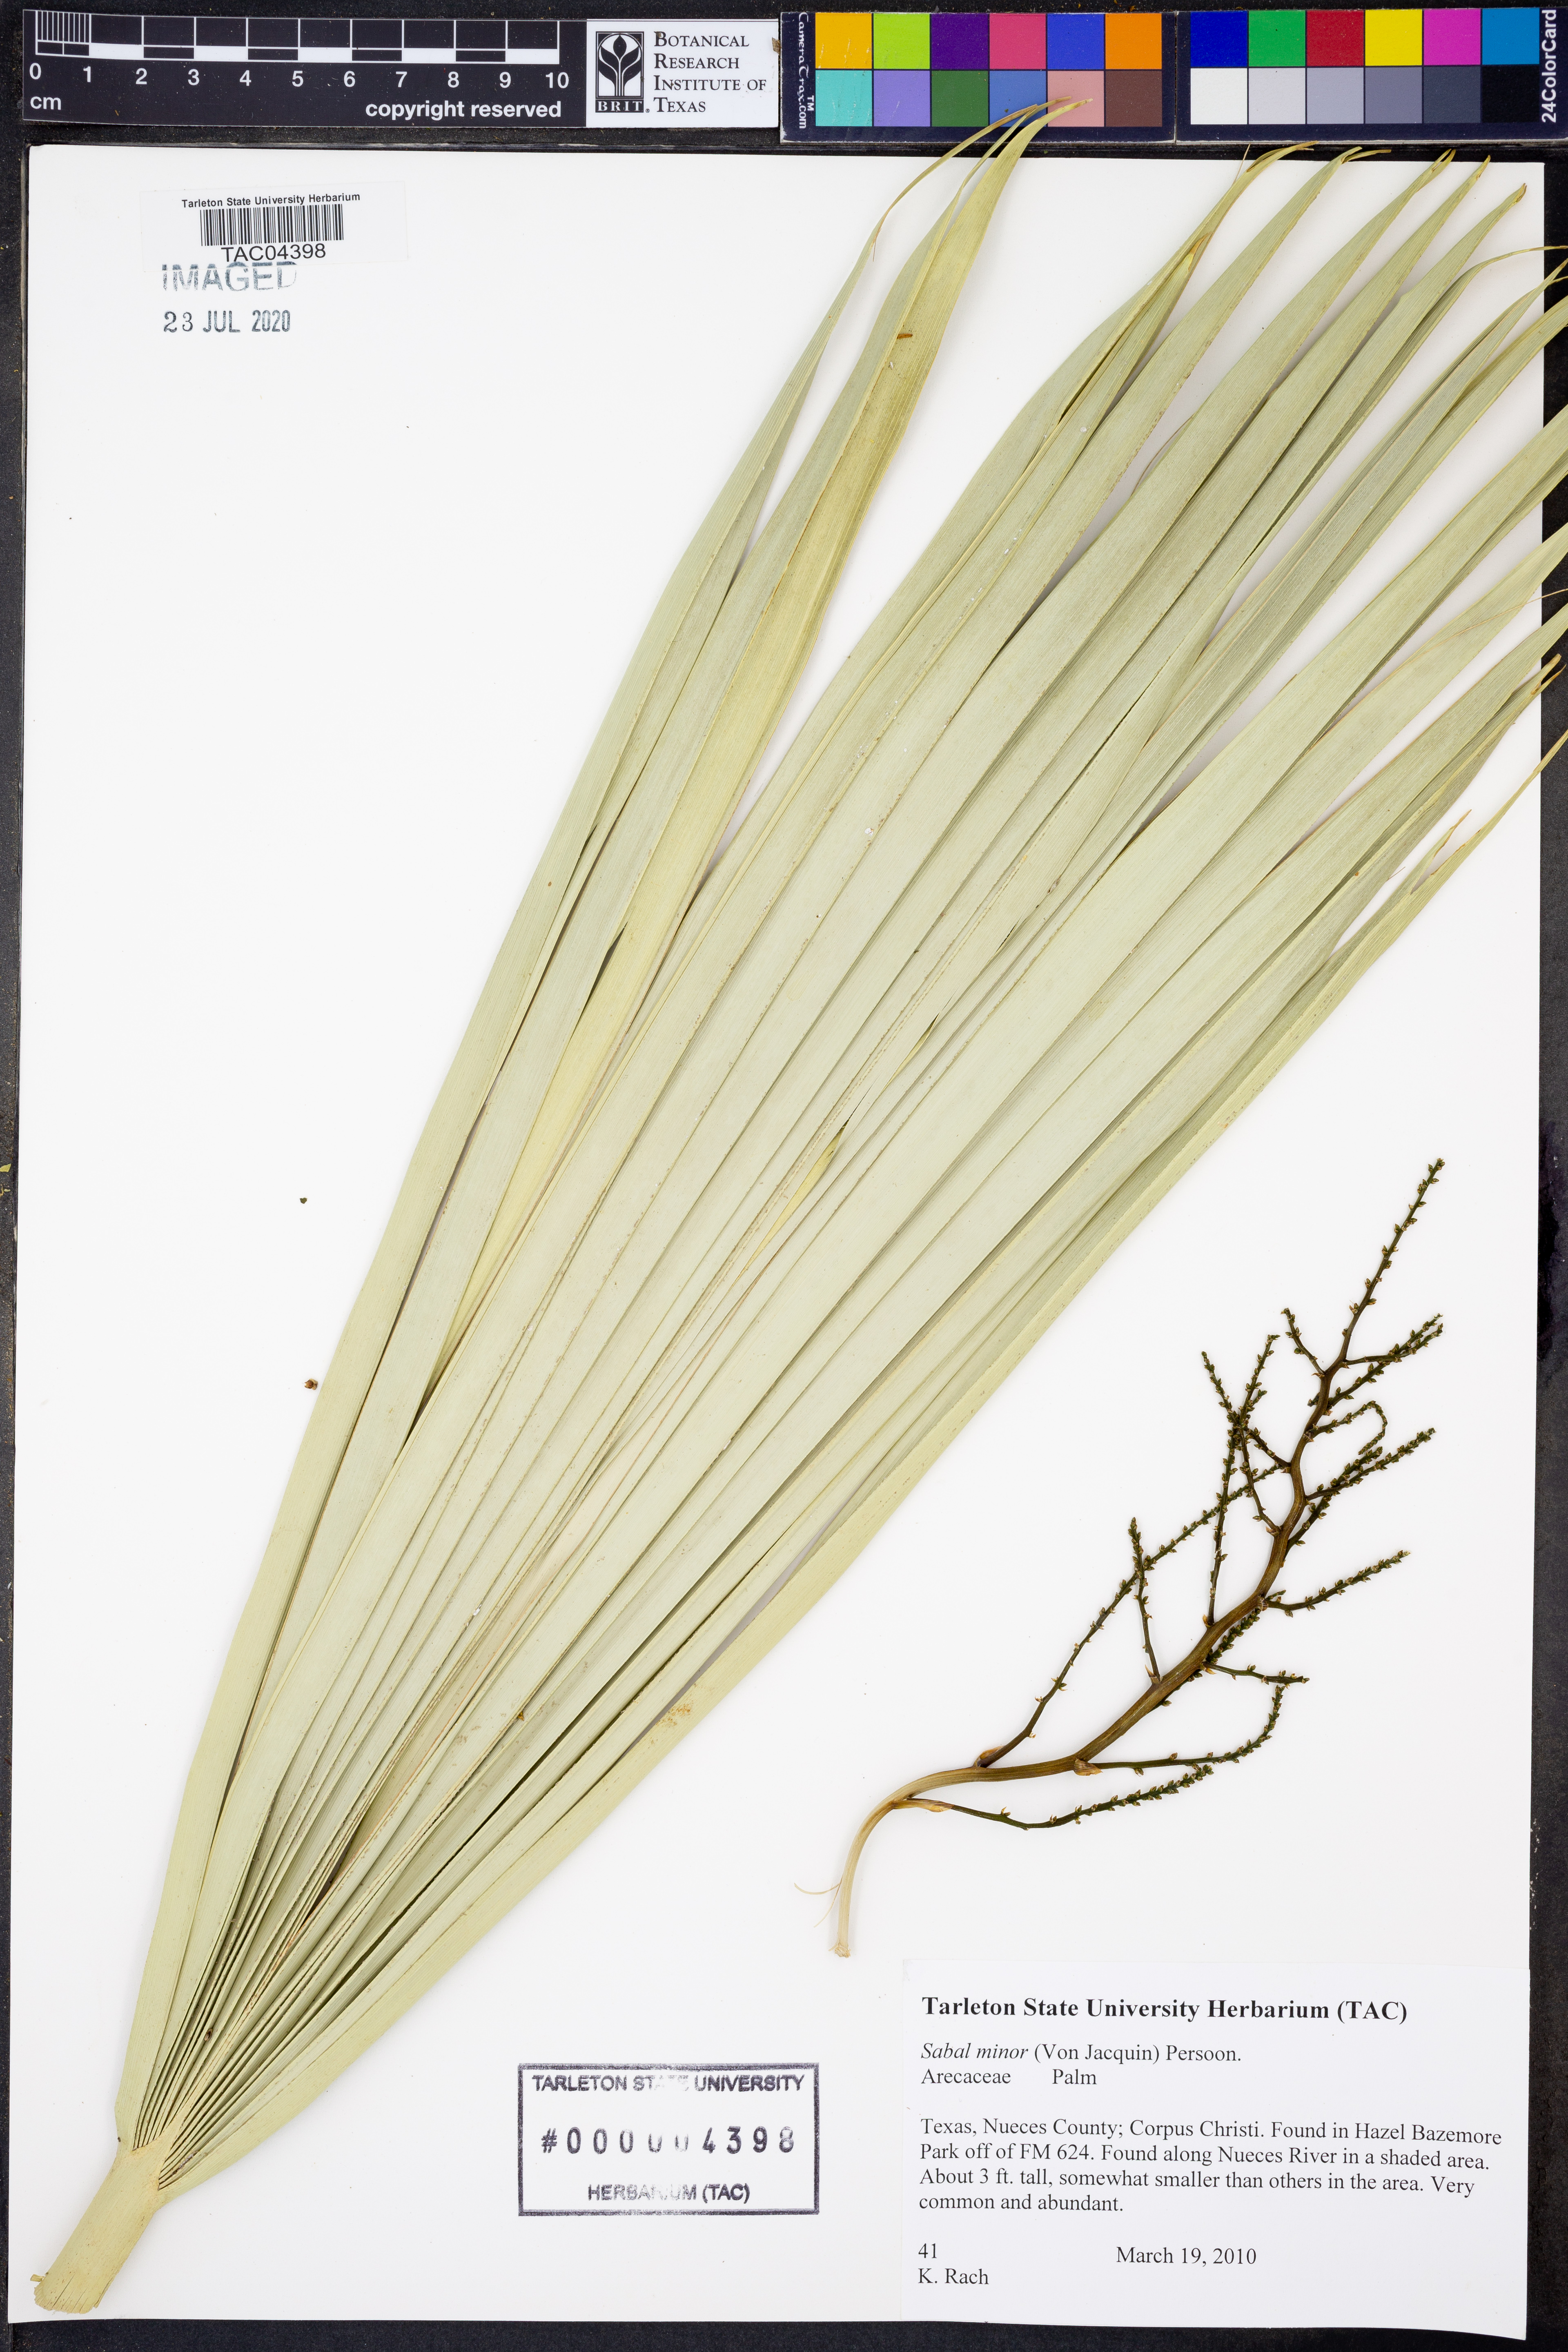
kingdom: Plantae
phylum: Tracheophyta
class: Liliopsida
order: Arecales
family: Arecaceae
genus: Sabal
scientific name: Sabal minor
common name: Dwarf palmetto
